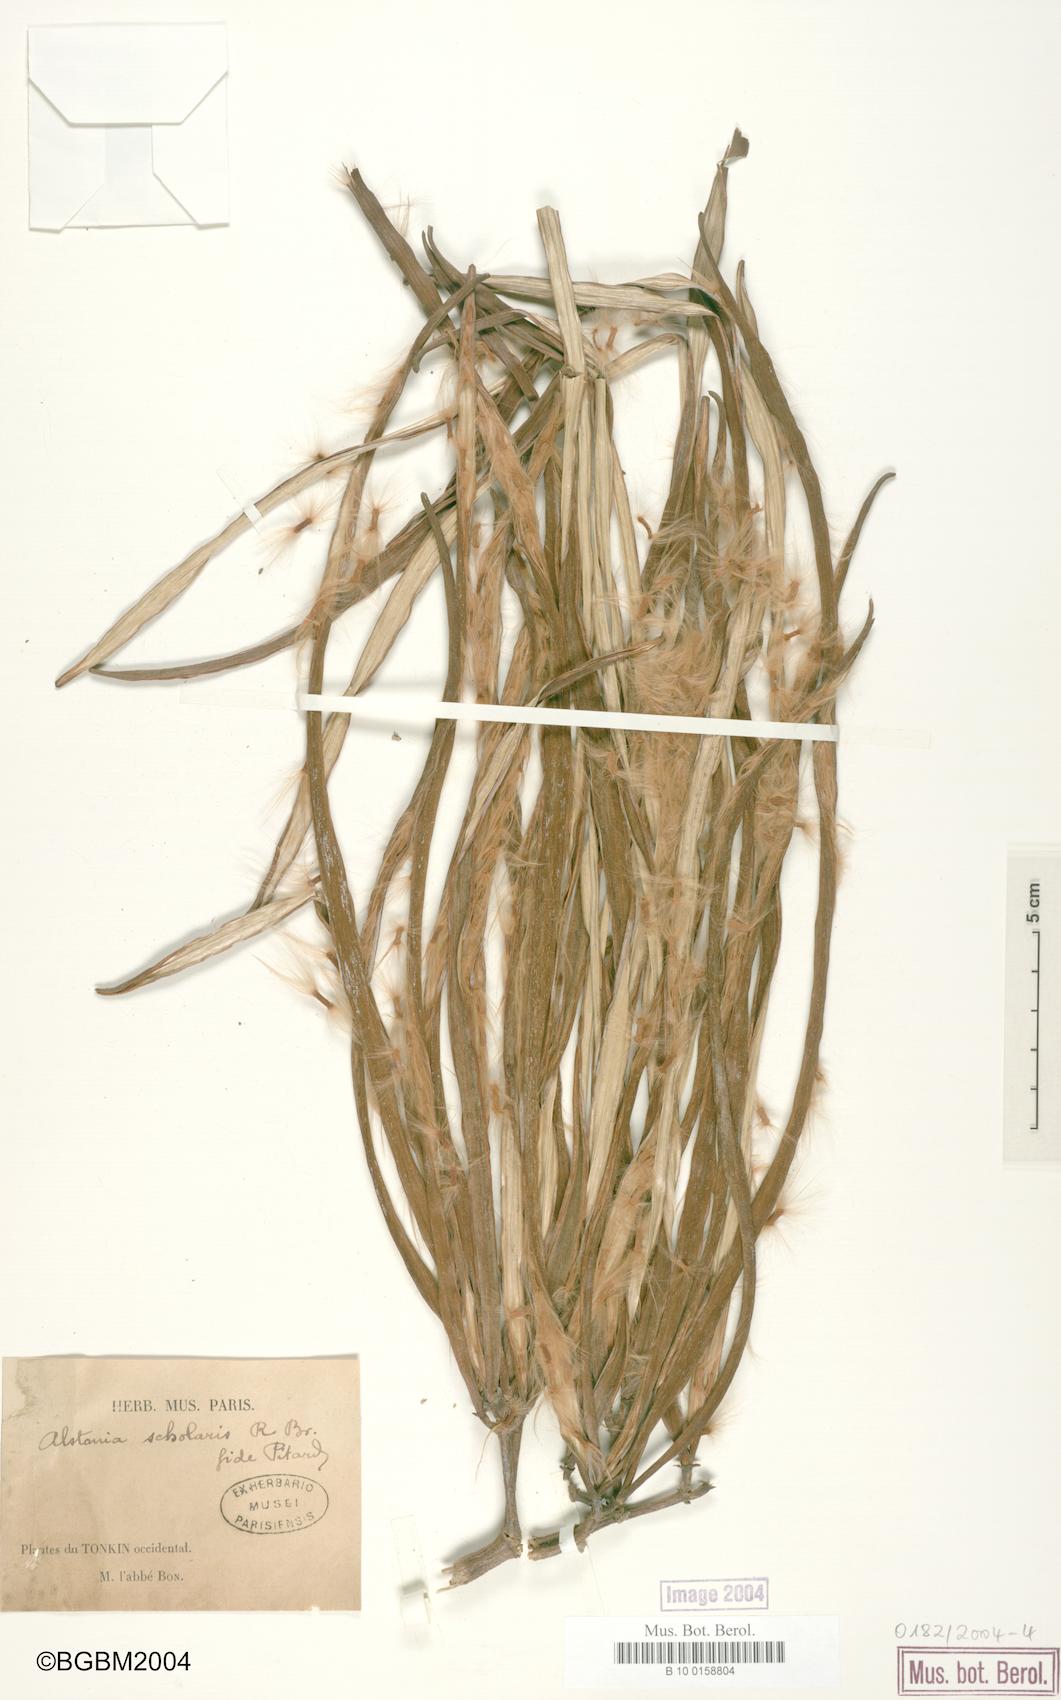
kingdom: Plantae
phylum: Tracheophyta
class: Magnoliopsida
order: Gentianales
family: Apocynaceae
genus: Alstonia
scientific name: Alstonia scholaris
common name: White cheesewood
